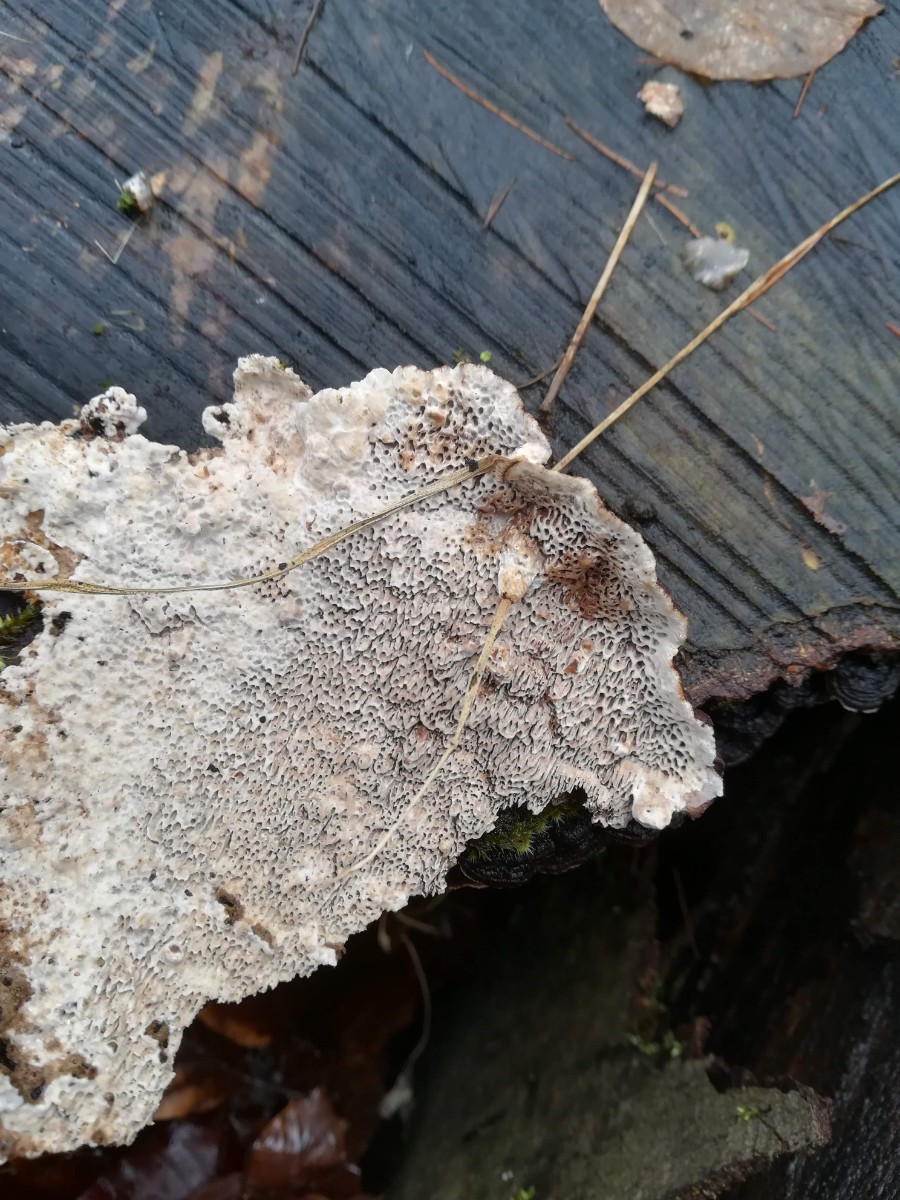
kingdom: Fungi
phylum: Basidiomycota
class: Agaricomycetes
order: Polyporales
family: Polyporaceae
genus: Podofomes
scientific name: Podofomes mollis
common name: blød begporesvamp
